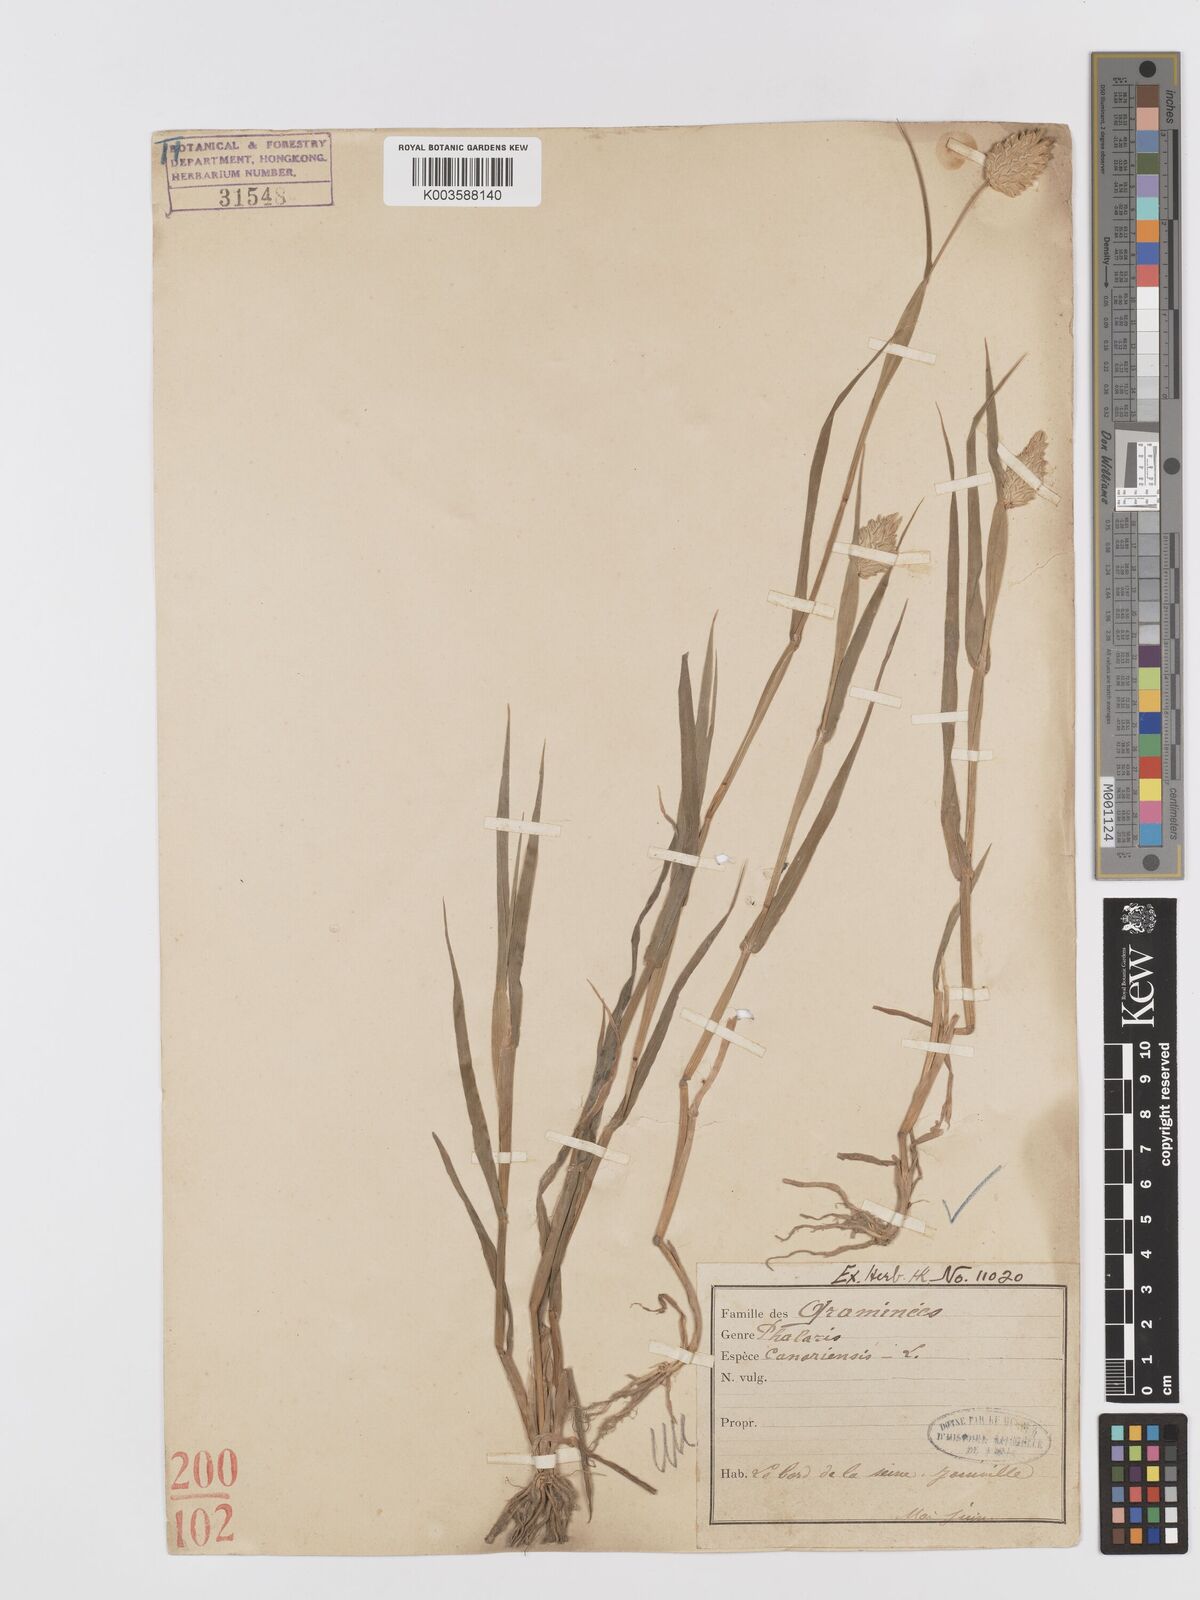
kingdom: Plantae
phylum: Tracheophyta
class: Liliopsida
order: Poales
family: Poaceae
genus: Phalaris
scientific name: Phalaris canariensis
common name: Annual canarygrass
